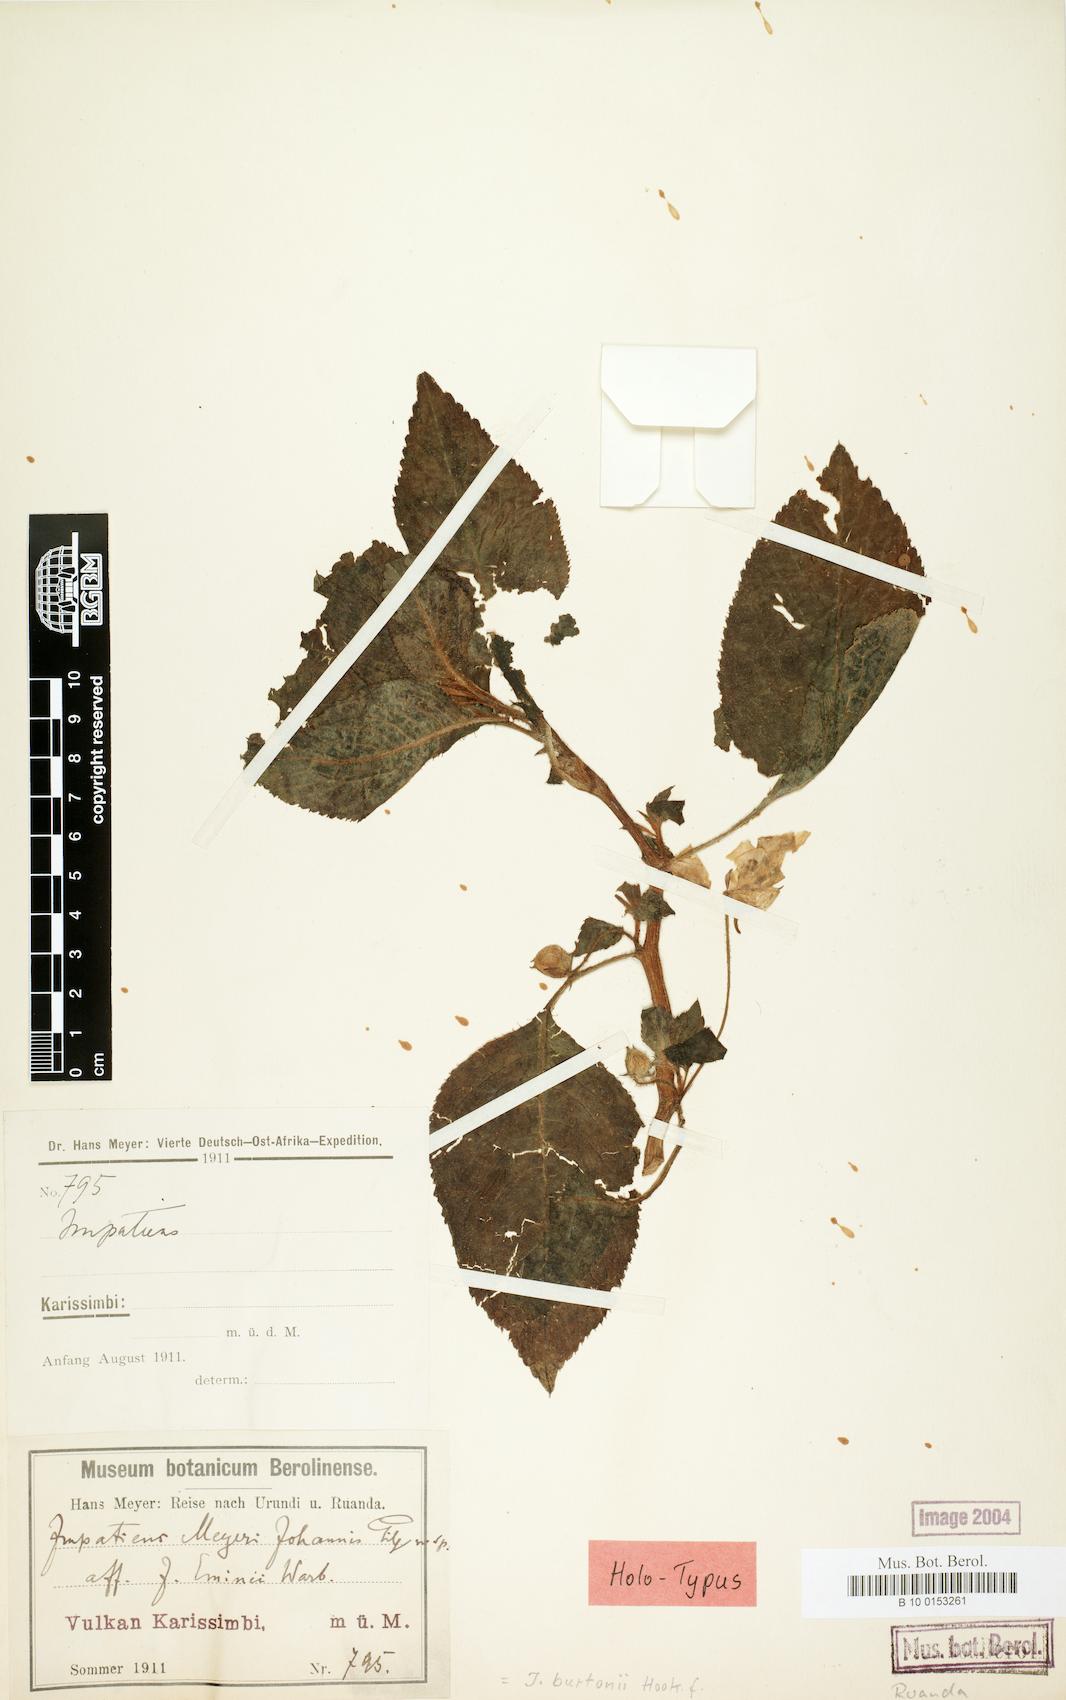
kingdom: Plantae
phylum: Tracheophyta
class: Magnoliopsida
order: Ericales
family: Balsaminaceae
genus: Impatiens
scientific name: Impatiens burtonii
